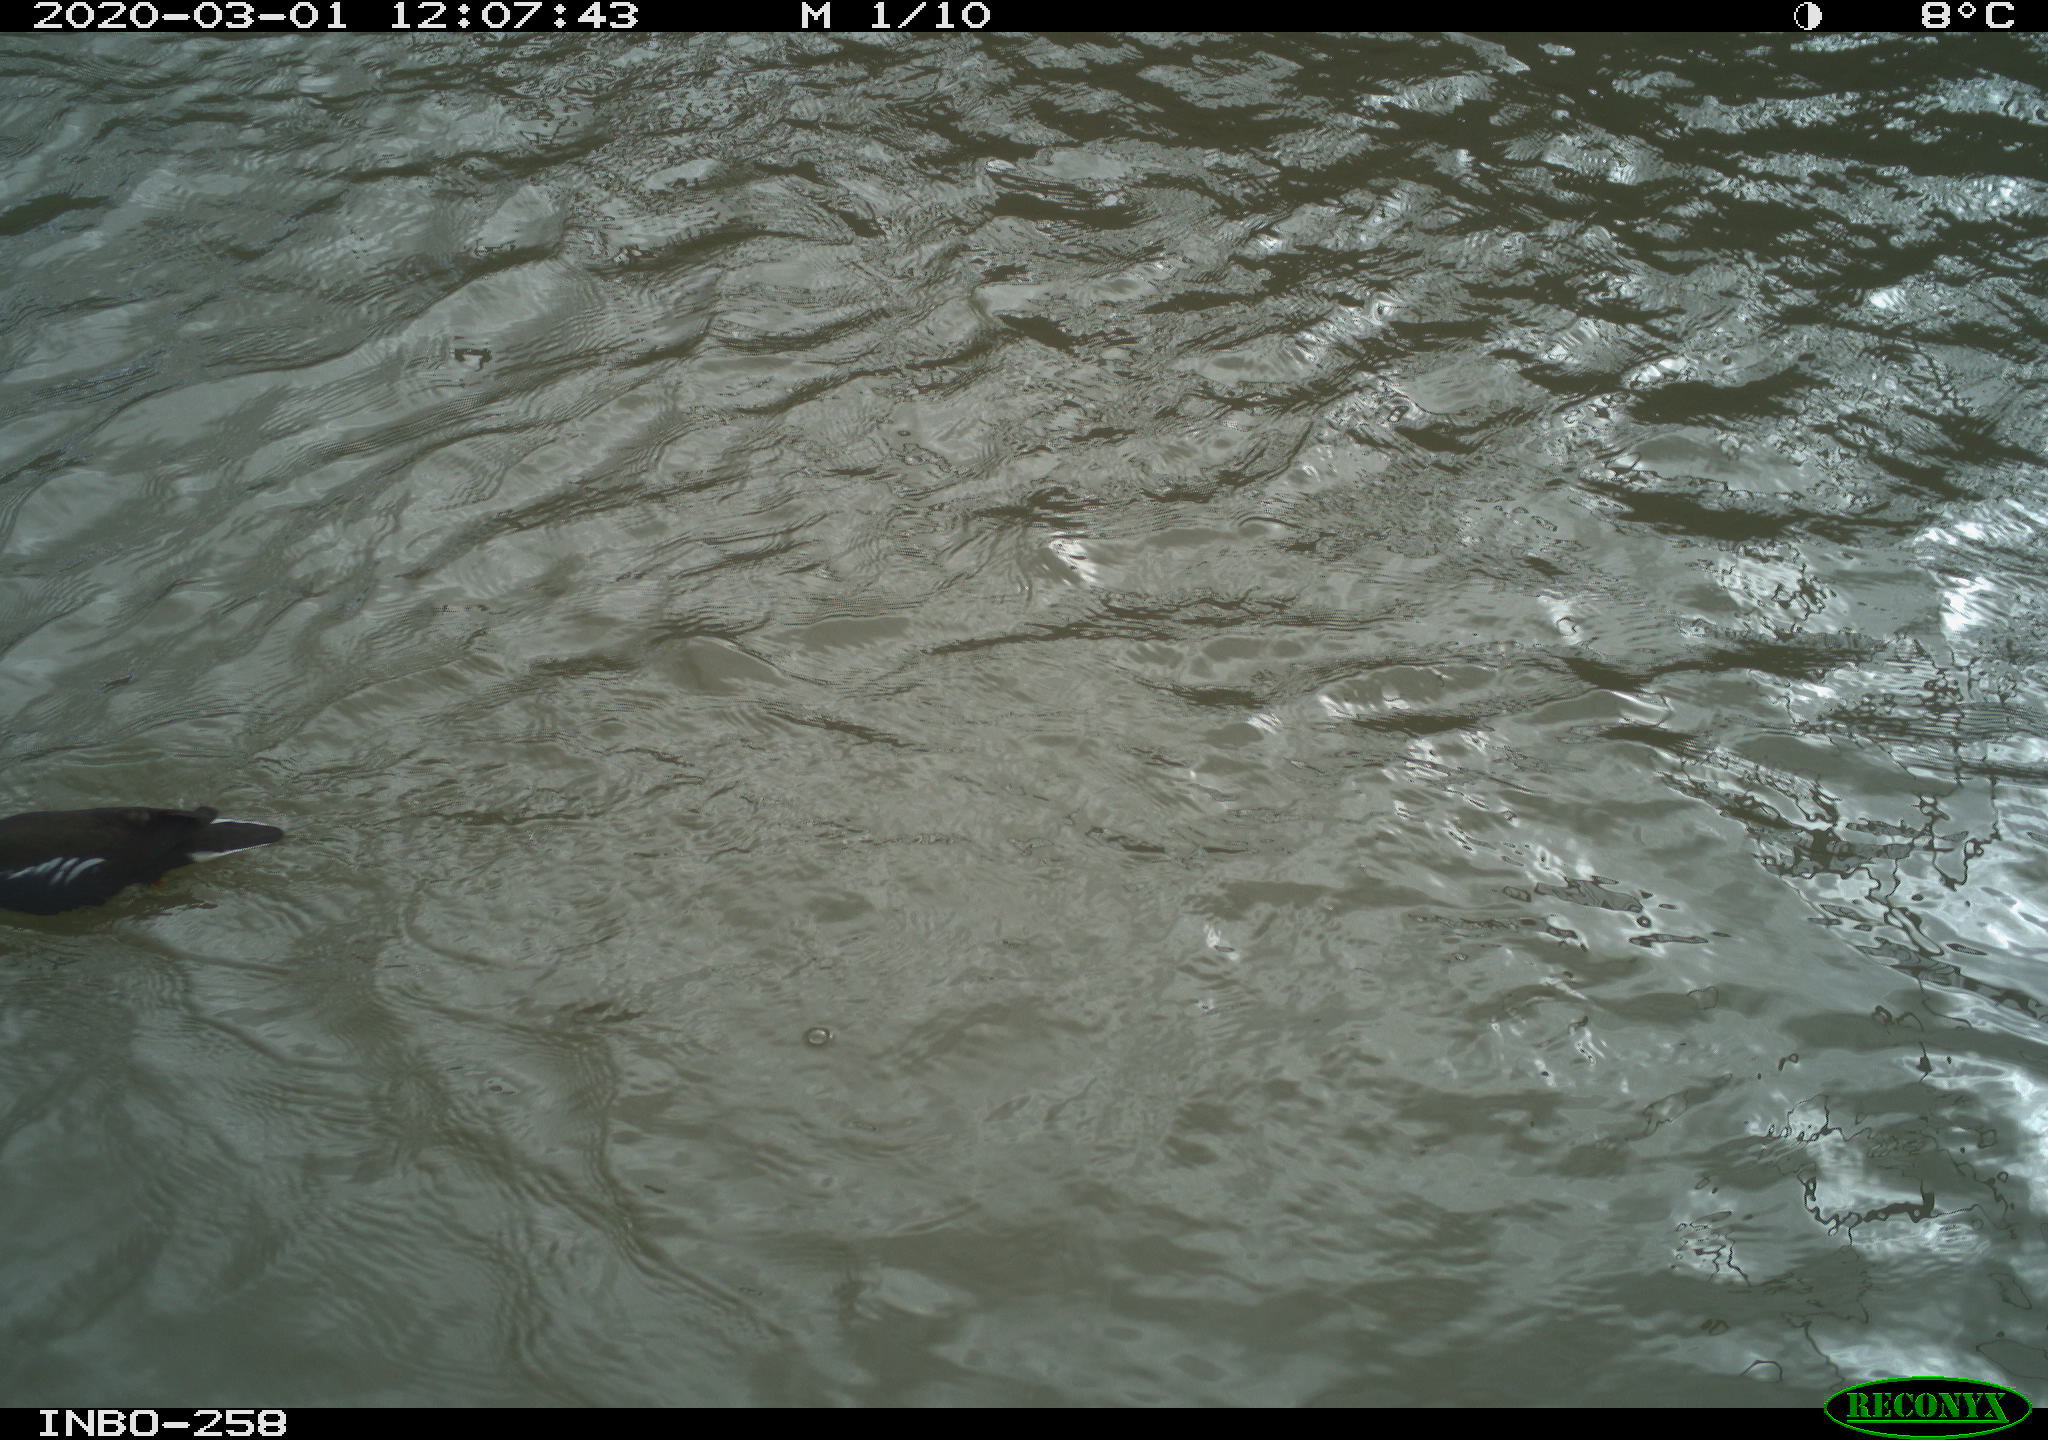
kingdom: Animalia
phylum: Chordata
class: Aves
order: Gruiformes
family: Rallidae
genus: Gallinula
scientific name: Gallinula chloropus
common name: Common moorhen
